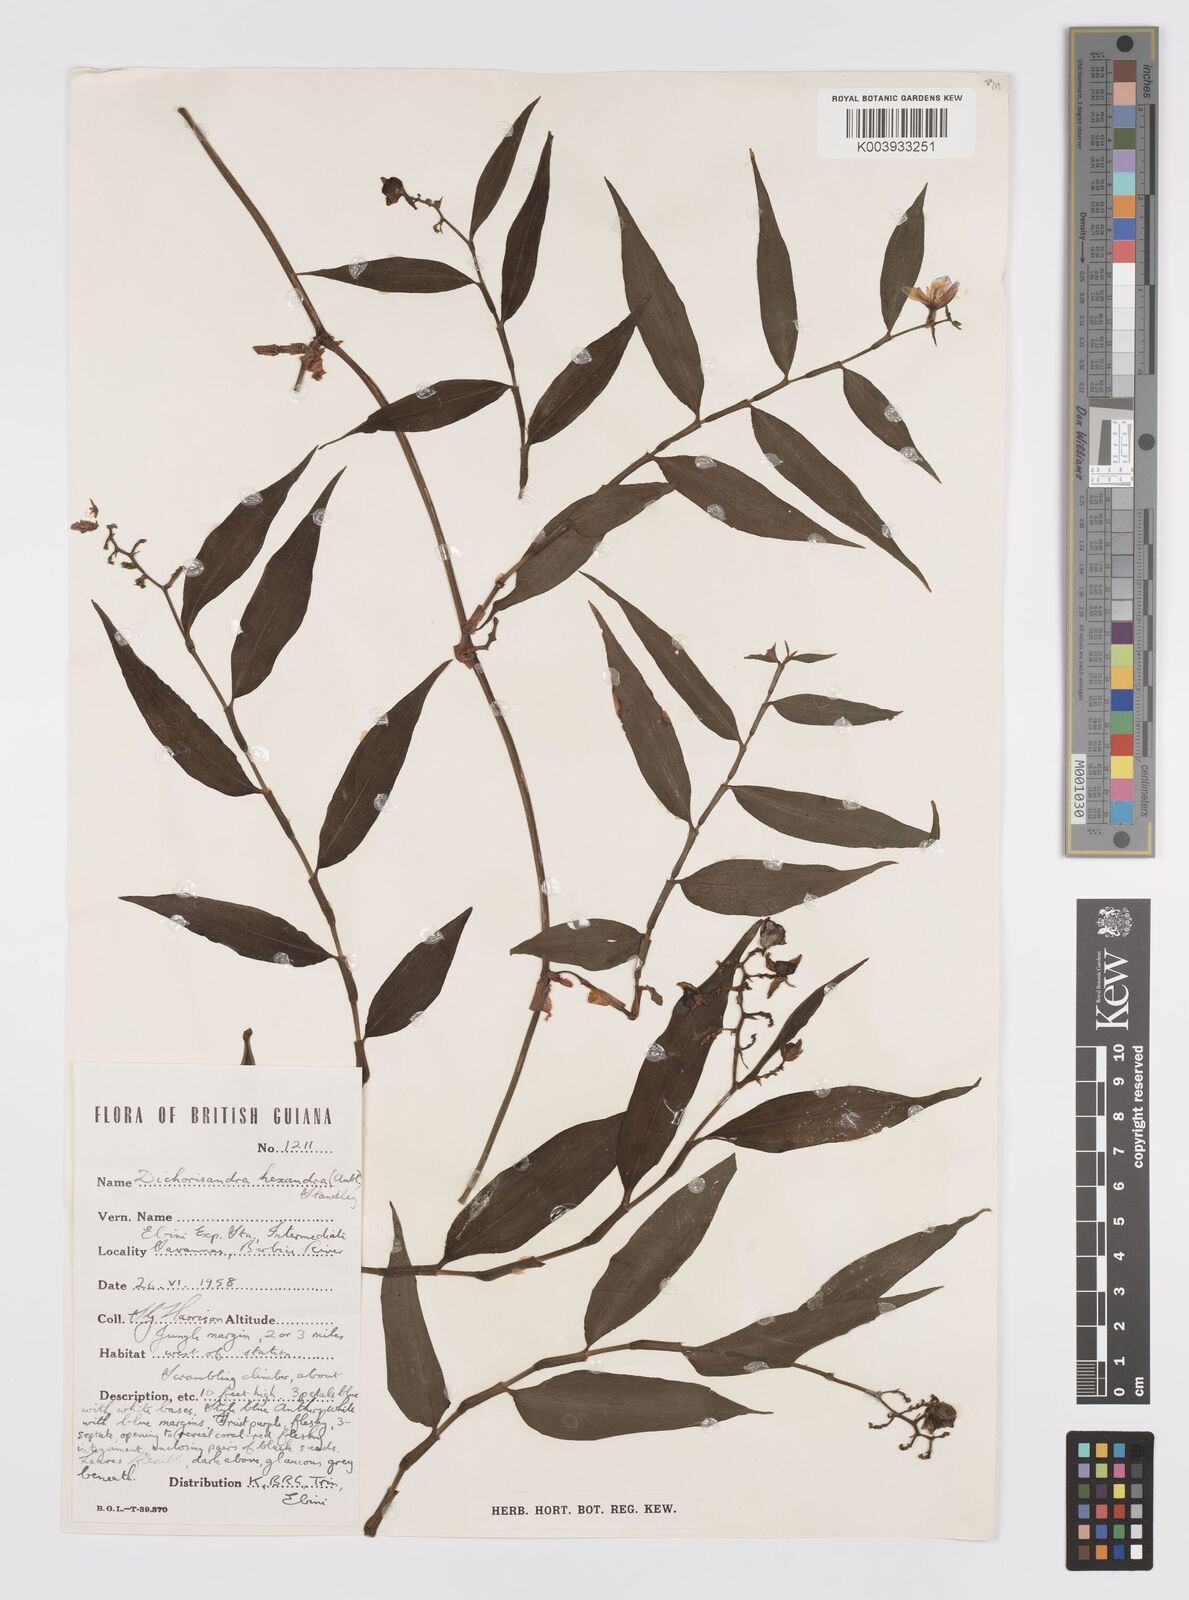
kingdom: Plantae
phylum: Tracheophyta
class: Liliopsida
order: Commelinales
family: Commelinaceae
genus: Dichorisandra
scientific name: Dichorisandra hexandra
